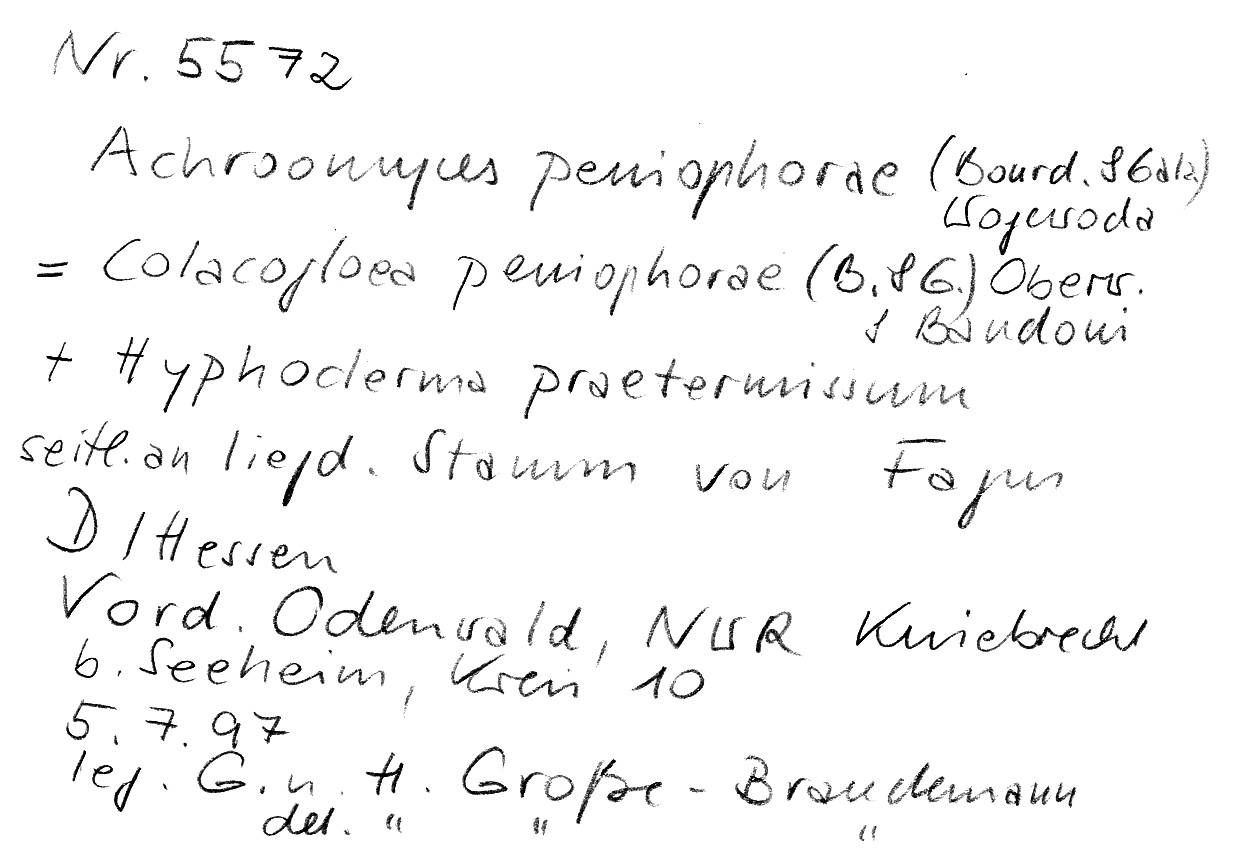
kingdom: Fungi
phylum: Basidiomycota
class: Agaricomycetes
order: Hymenochaetales
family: Rickenellaceae
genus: Peniophorella
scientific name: Peniophorella praetermissa
